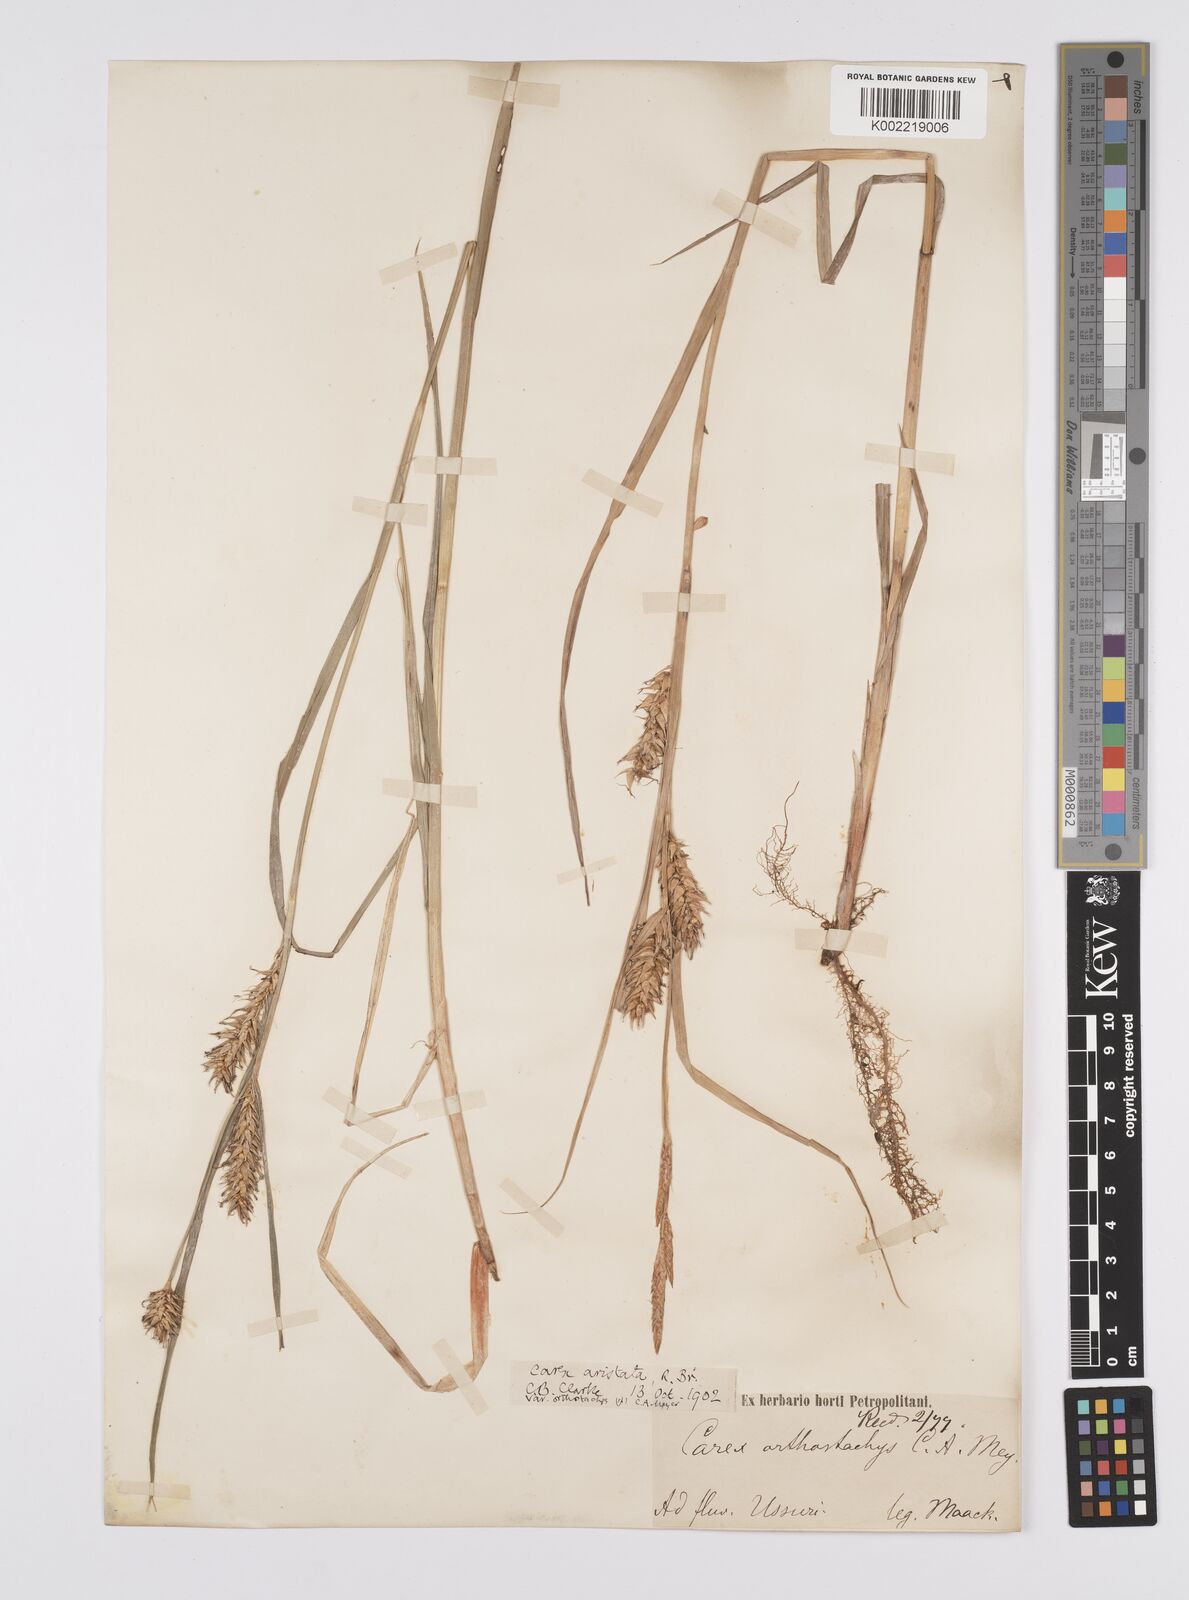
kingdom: Plantae
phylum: Tracheophyta
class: Liliopsida
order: Poales
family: Cyperaceae
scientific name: Cyperaceae
